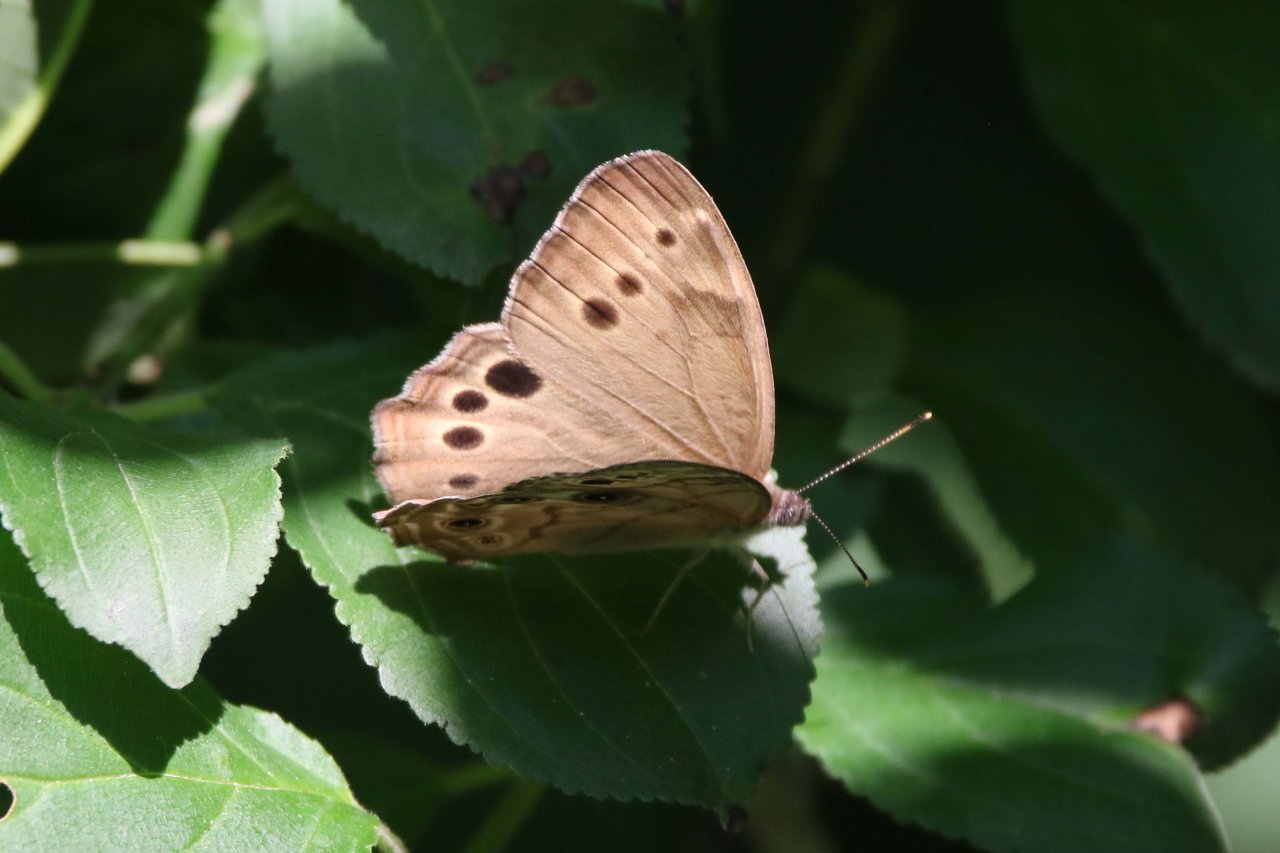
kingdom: Animalia
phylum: Arthropoda
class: Insecta
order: Lepidoptera
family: Nymphalidae
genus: Lethe
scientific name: Lethe anthedon
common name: Northern Pearly-Eye
